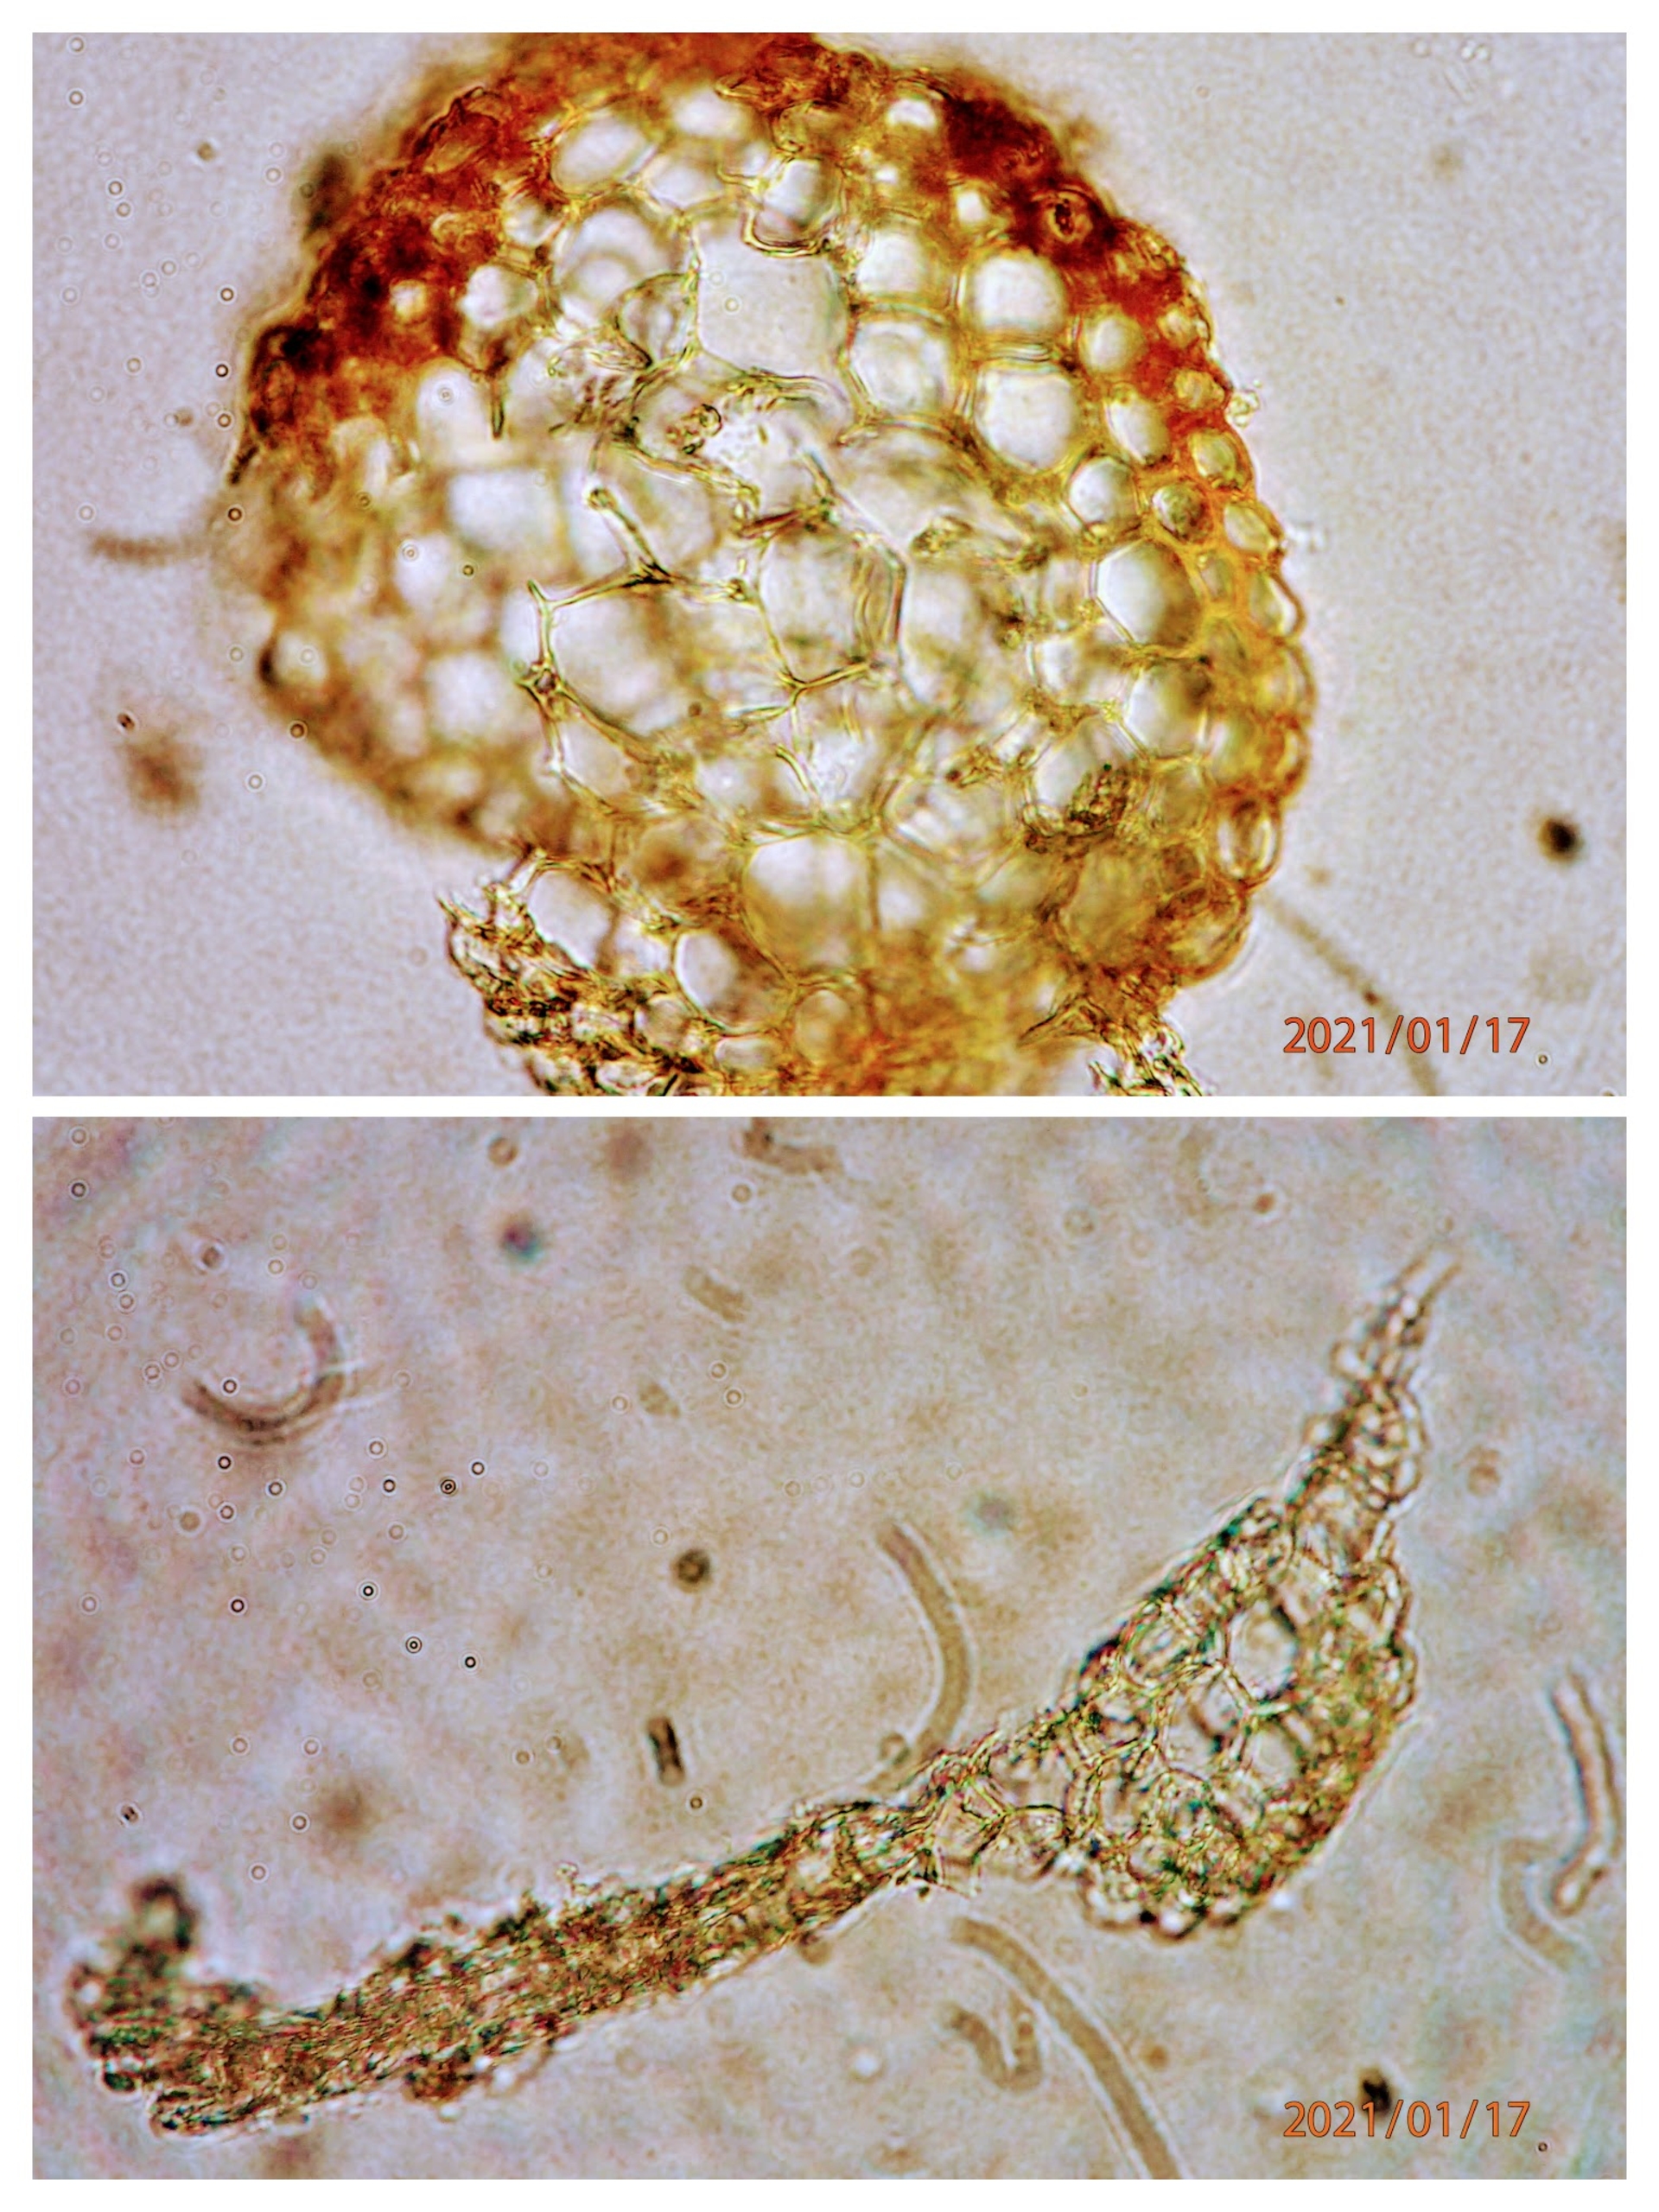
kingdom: Plantae
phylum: Bryophyta
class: Bryopsida
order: Pottiales
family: Pottiaceae
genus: Syntrichia
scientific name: Syntrichia virescens
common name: Grøn hårstjerne
